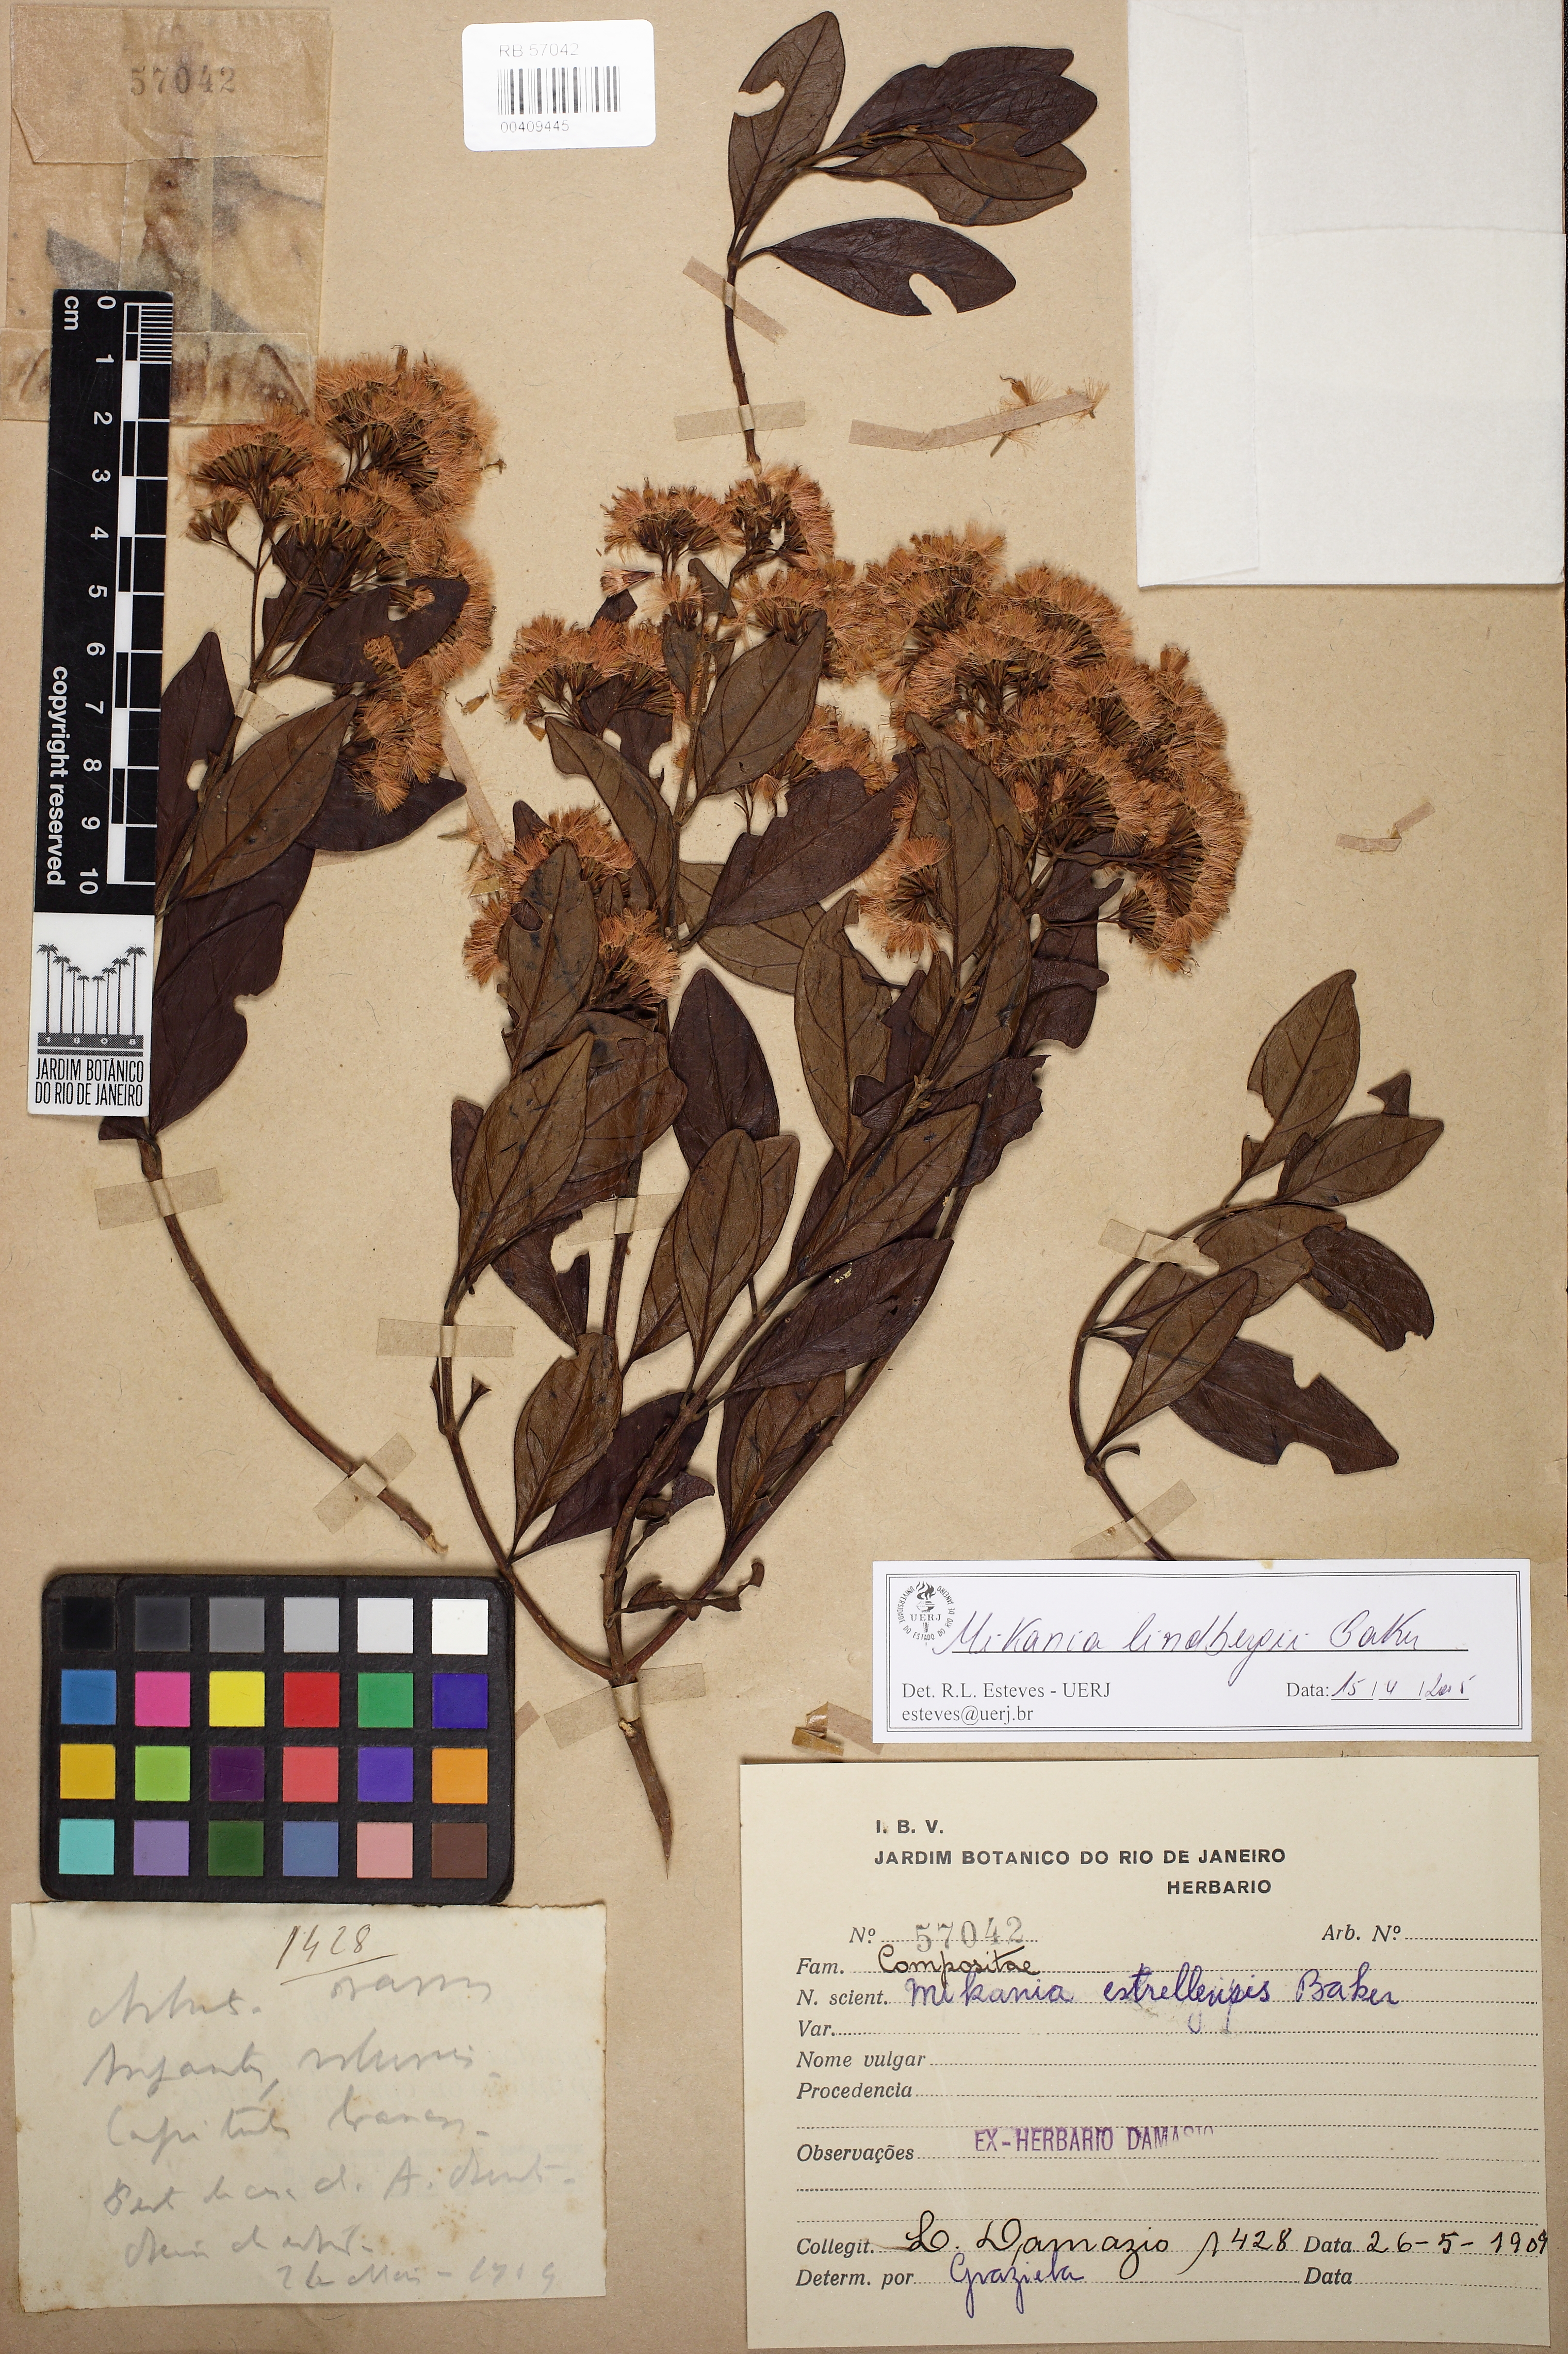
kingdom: Plantae
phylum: Tracheophyta
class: Magnoliopsida
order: Asterales
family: Asteraceae
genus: Mikania
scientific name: Mikania lindbergii
